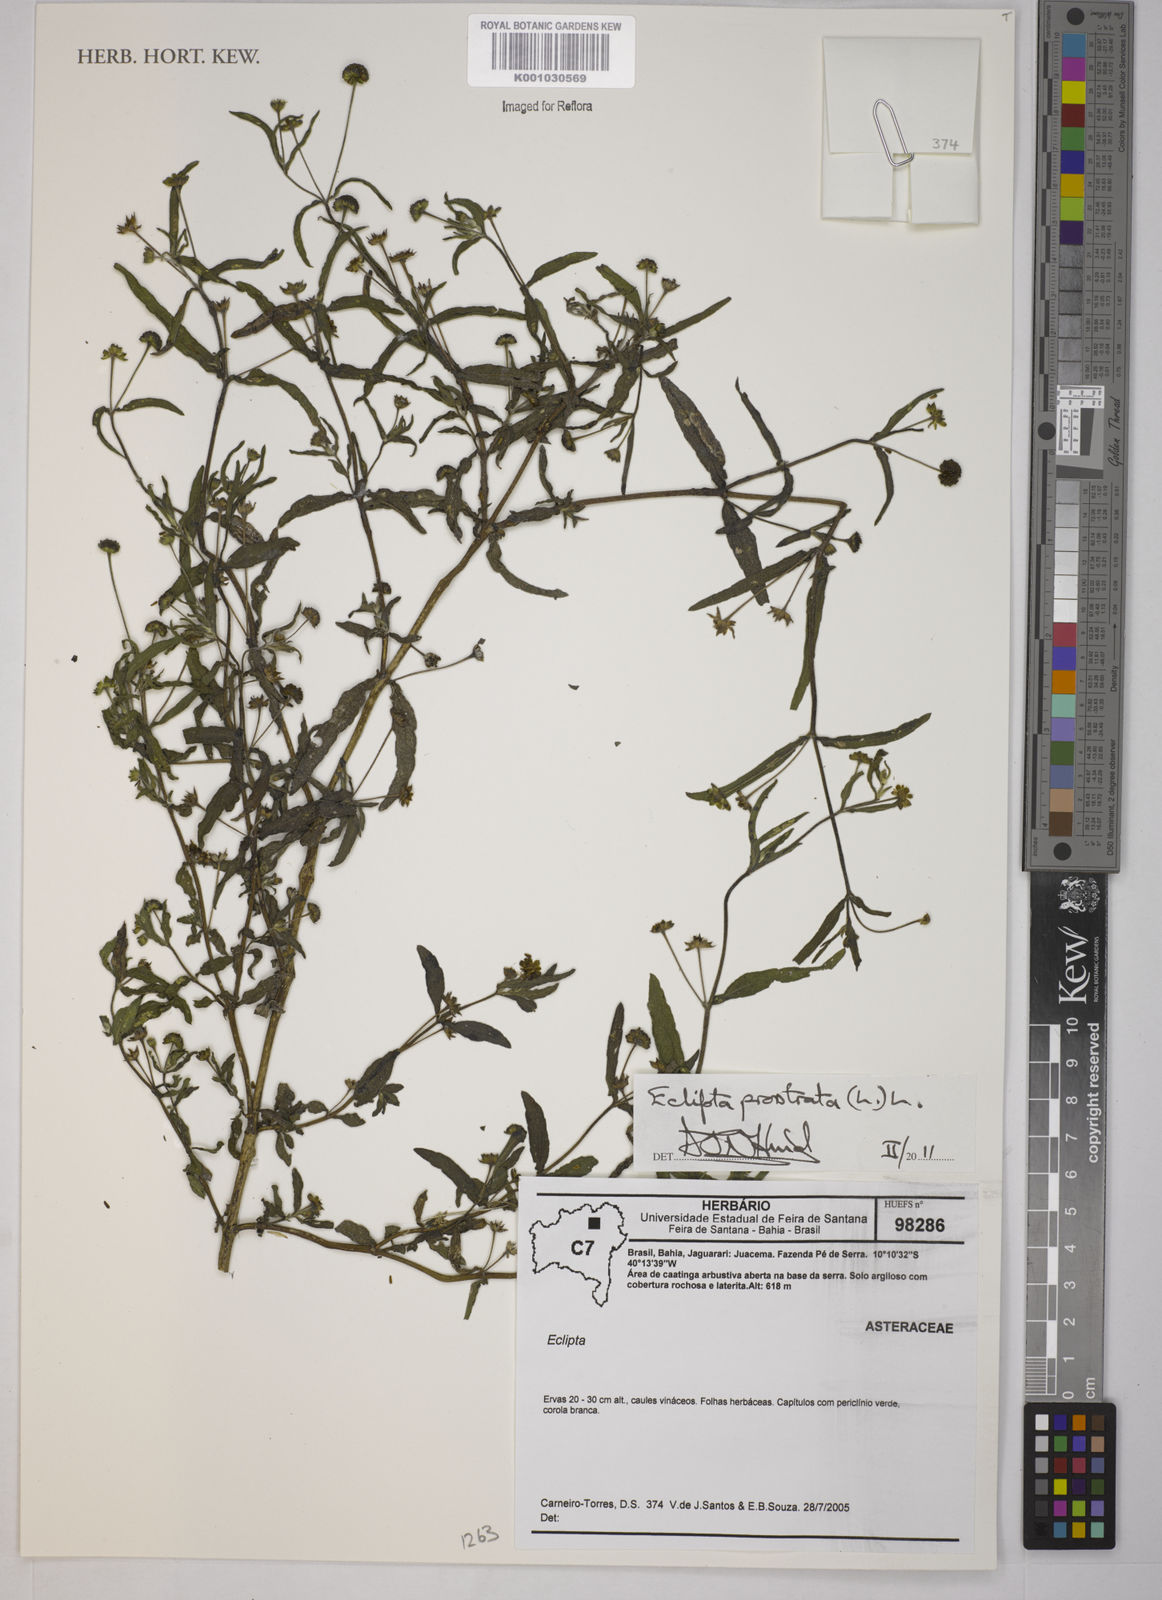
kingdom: Plantae
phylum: Tracheophyta
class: Magnoliopsida
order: Asterales
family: Asteraceae
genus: Eclipta
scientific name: Eclipta prostrata
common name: False daisy
